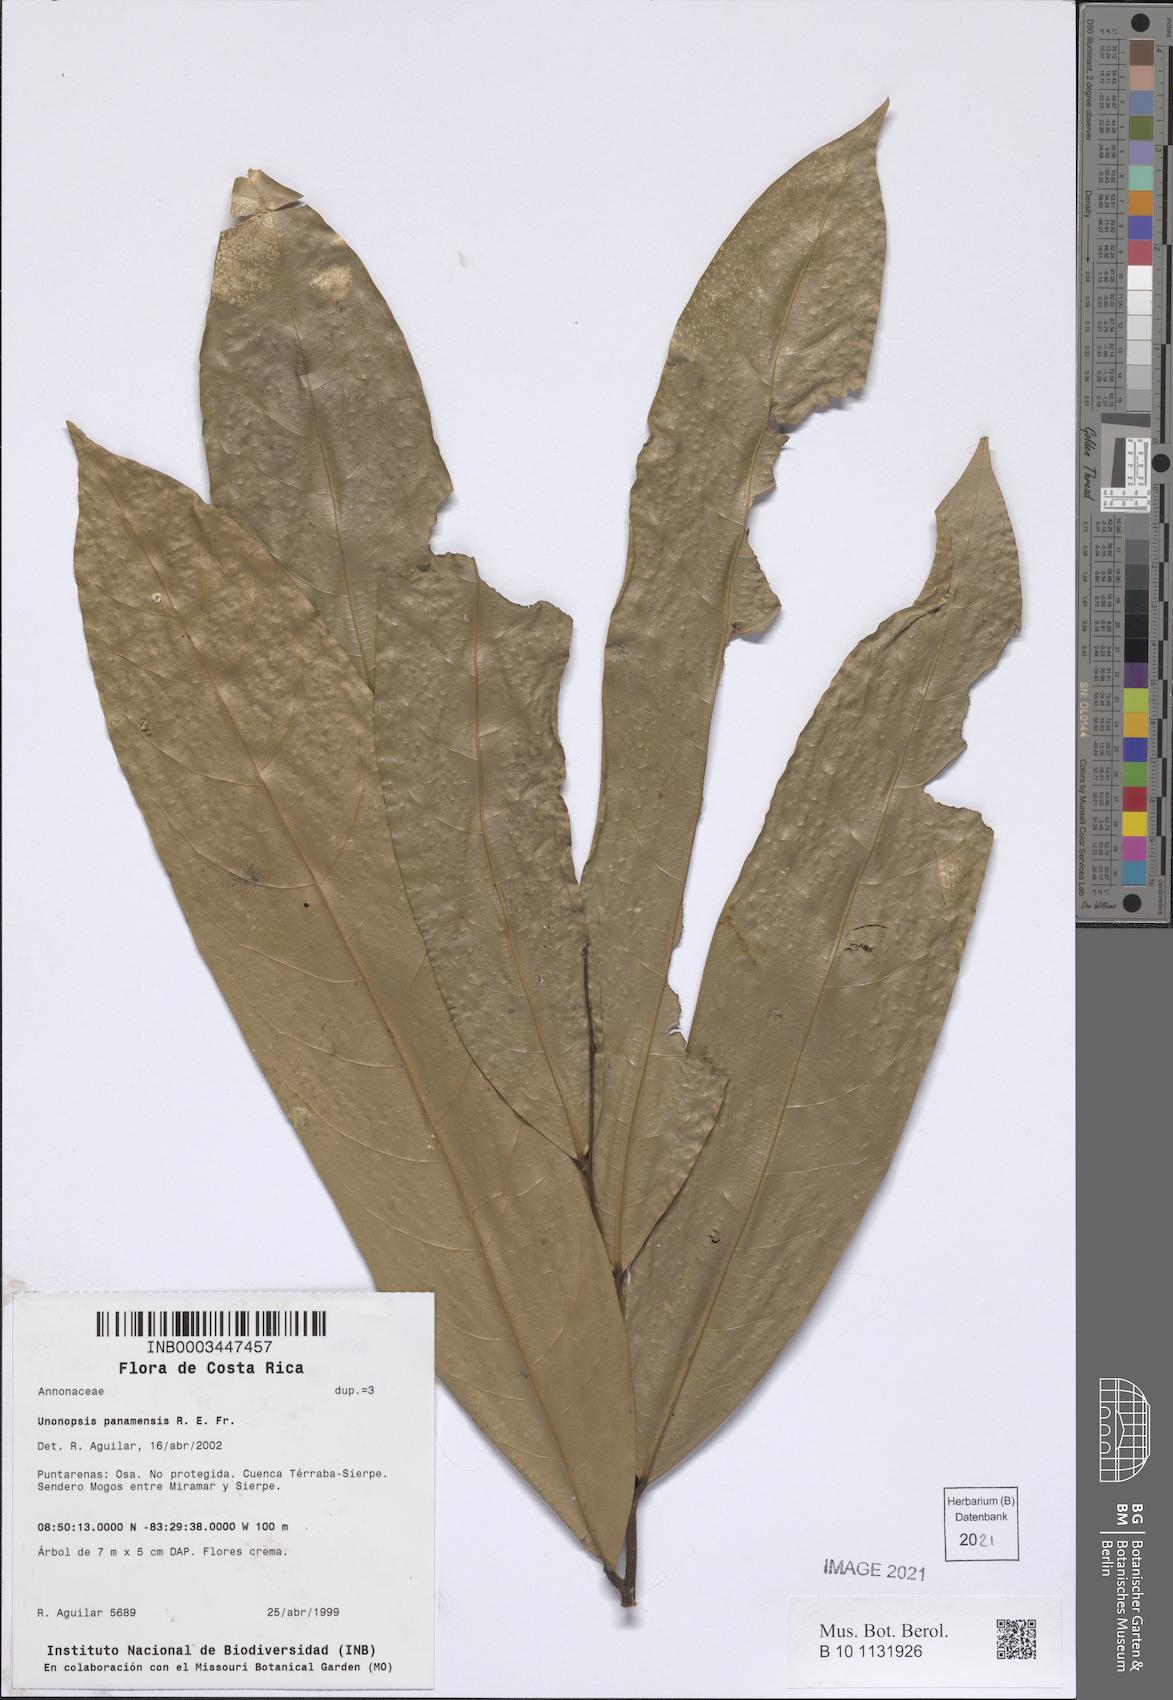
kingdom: Plantae
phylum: Tracheophyta
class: Magnoliopsida
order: Magnoliales
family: Annonaceae
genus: Unonopsis
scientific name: Unonopsis panamensis
